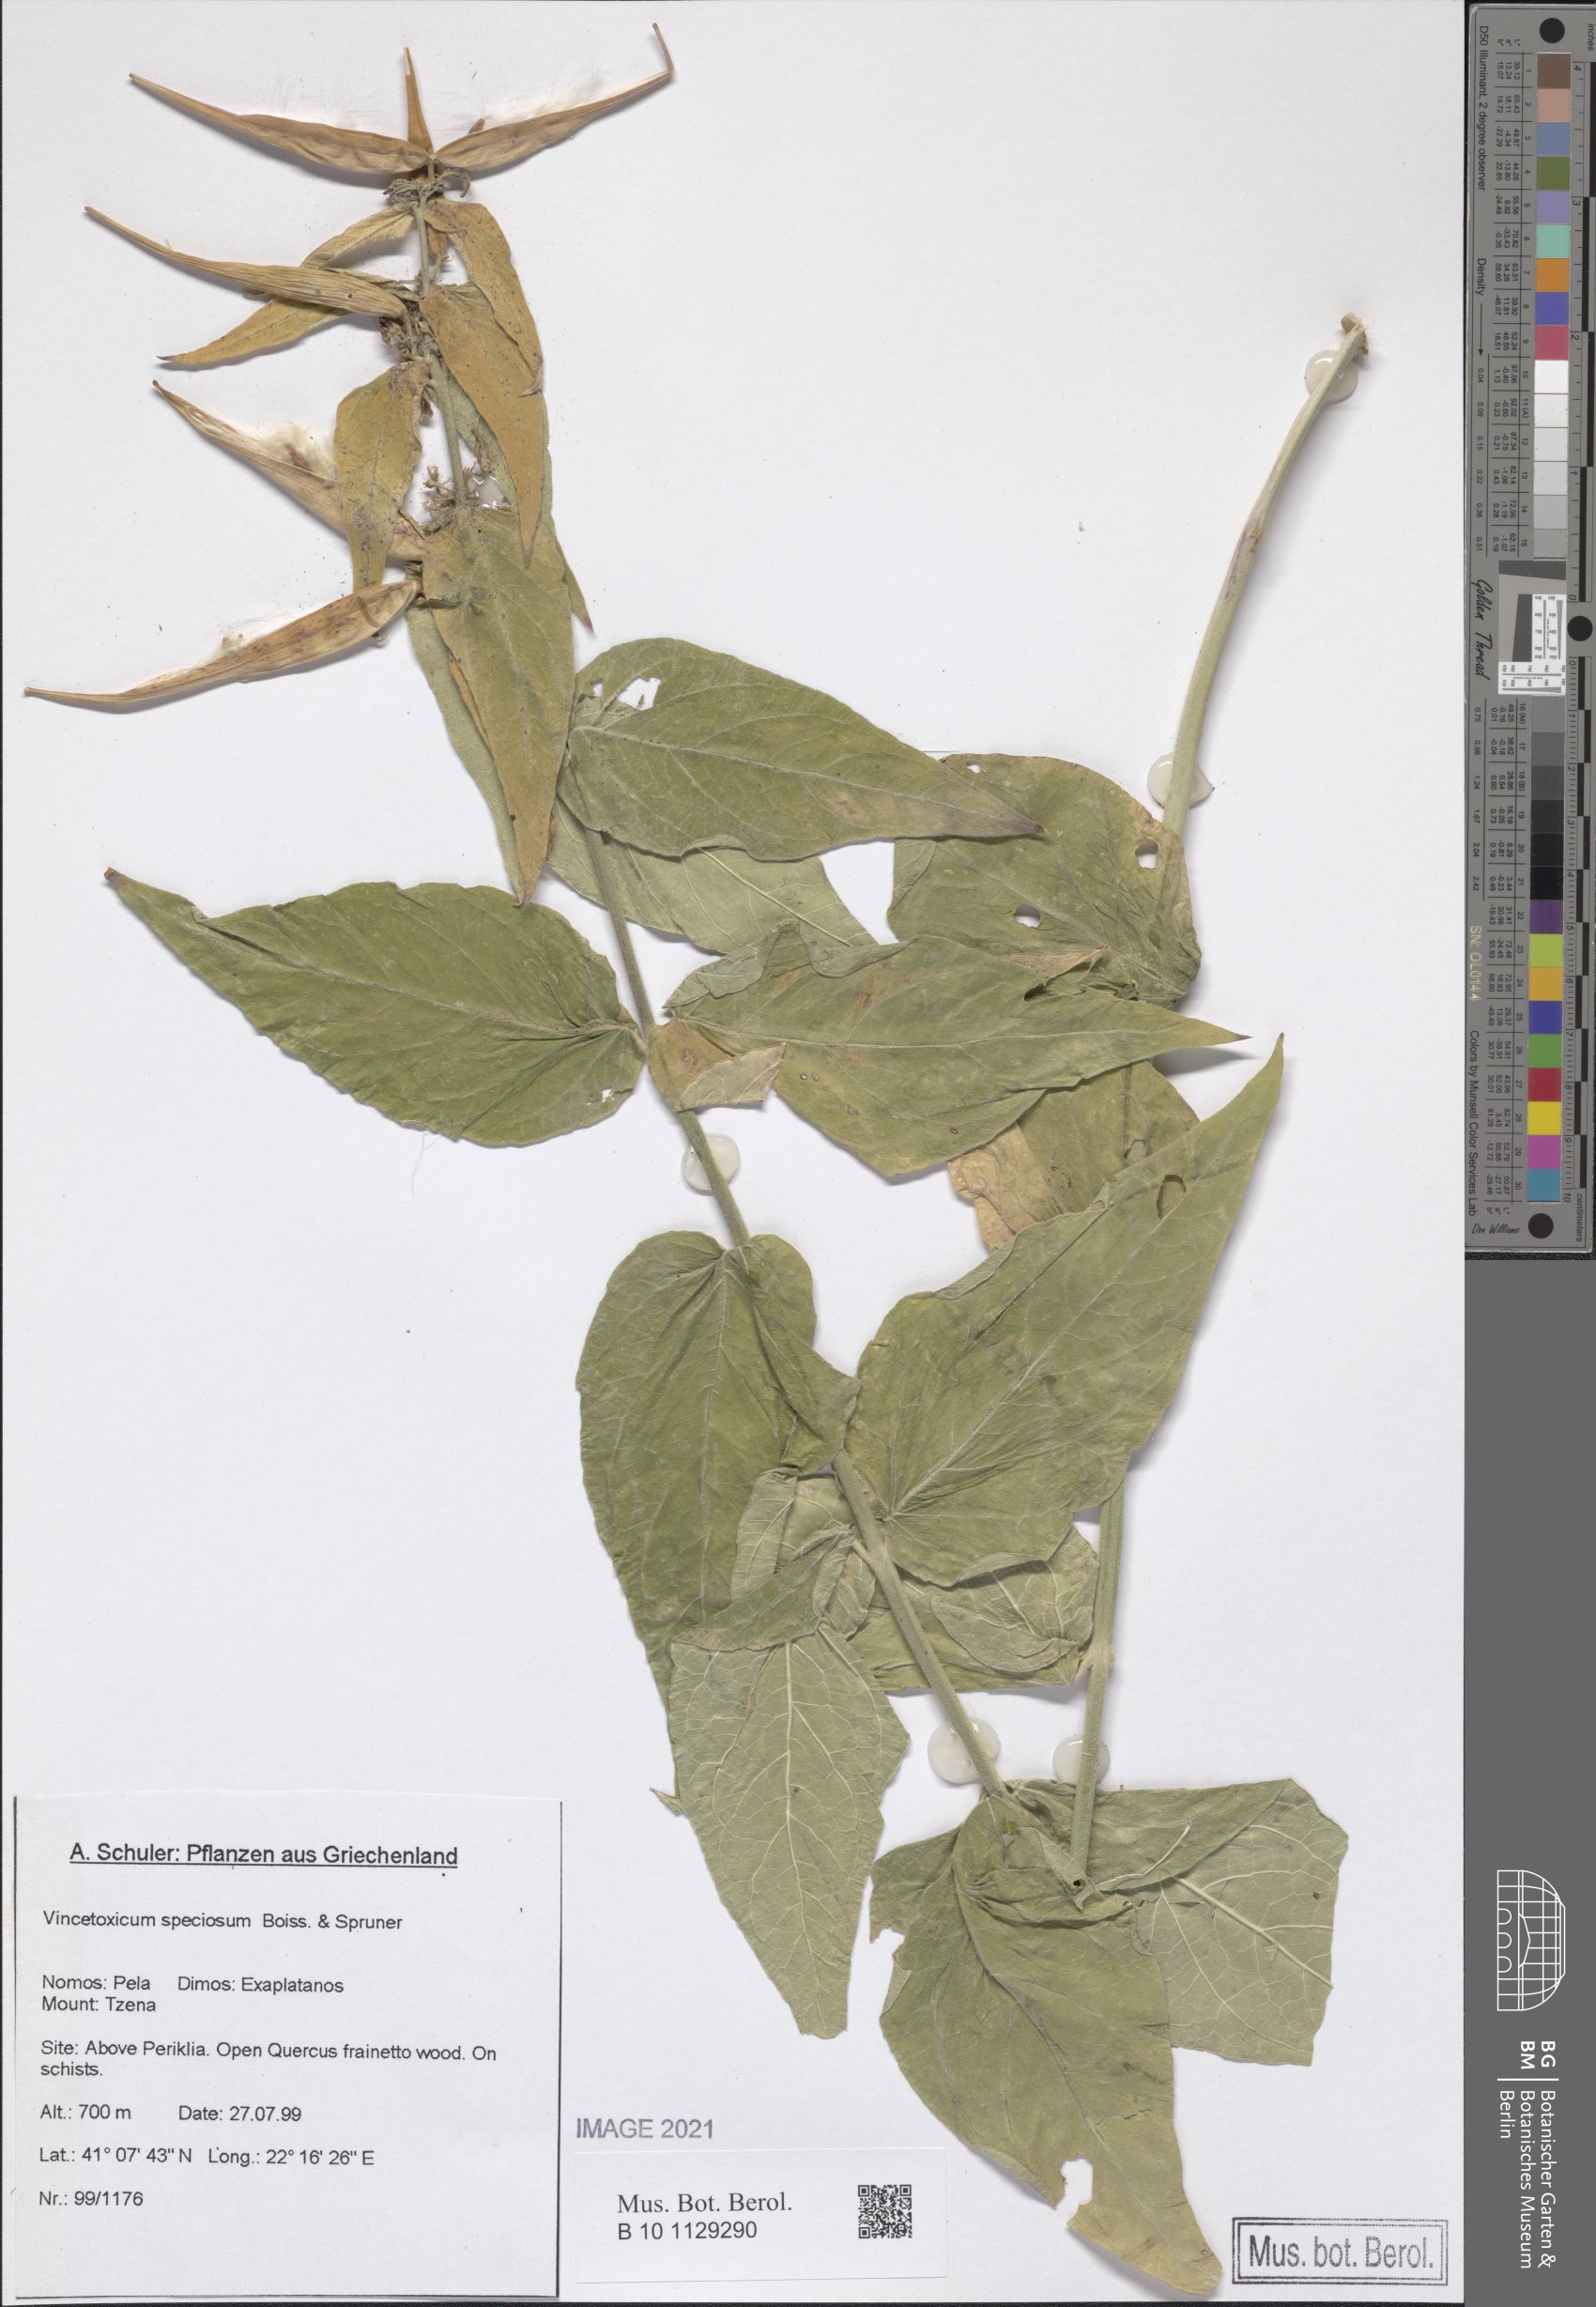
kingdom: Plantae
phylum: Tracheophyta
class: Magnoliopsida
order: Gentianales
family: Apocynaceae
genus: Vincetoxicum
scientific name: Vincetoxicum speciosum
